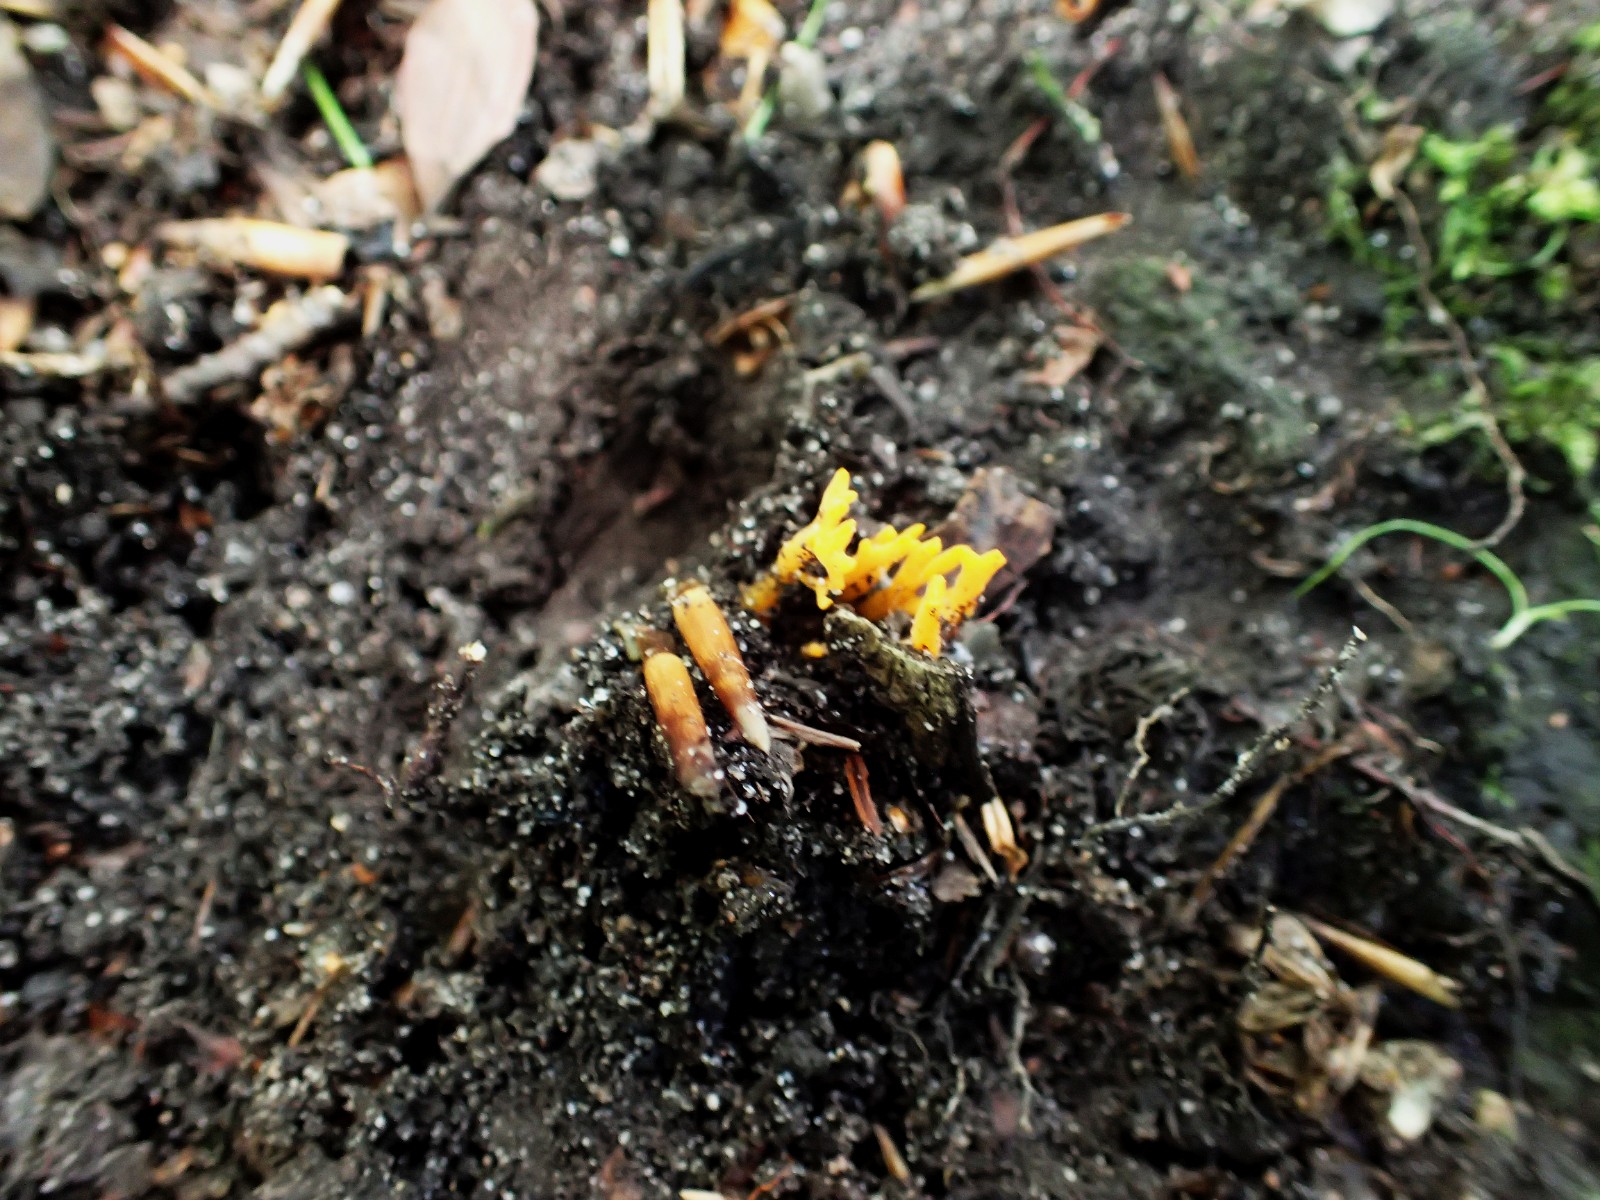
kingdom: Fungi
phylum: Basidiomycota
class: Dacrymycetes
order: Dacrymycetales
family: Dacrymycetaceae
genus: Calocera
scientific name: Calocera viscosa
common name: almindelig guldgaffel
